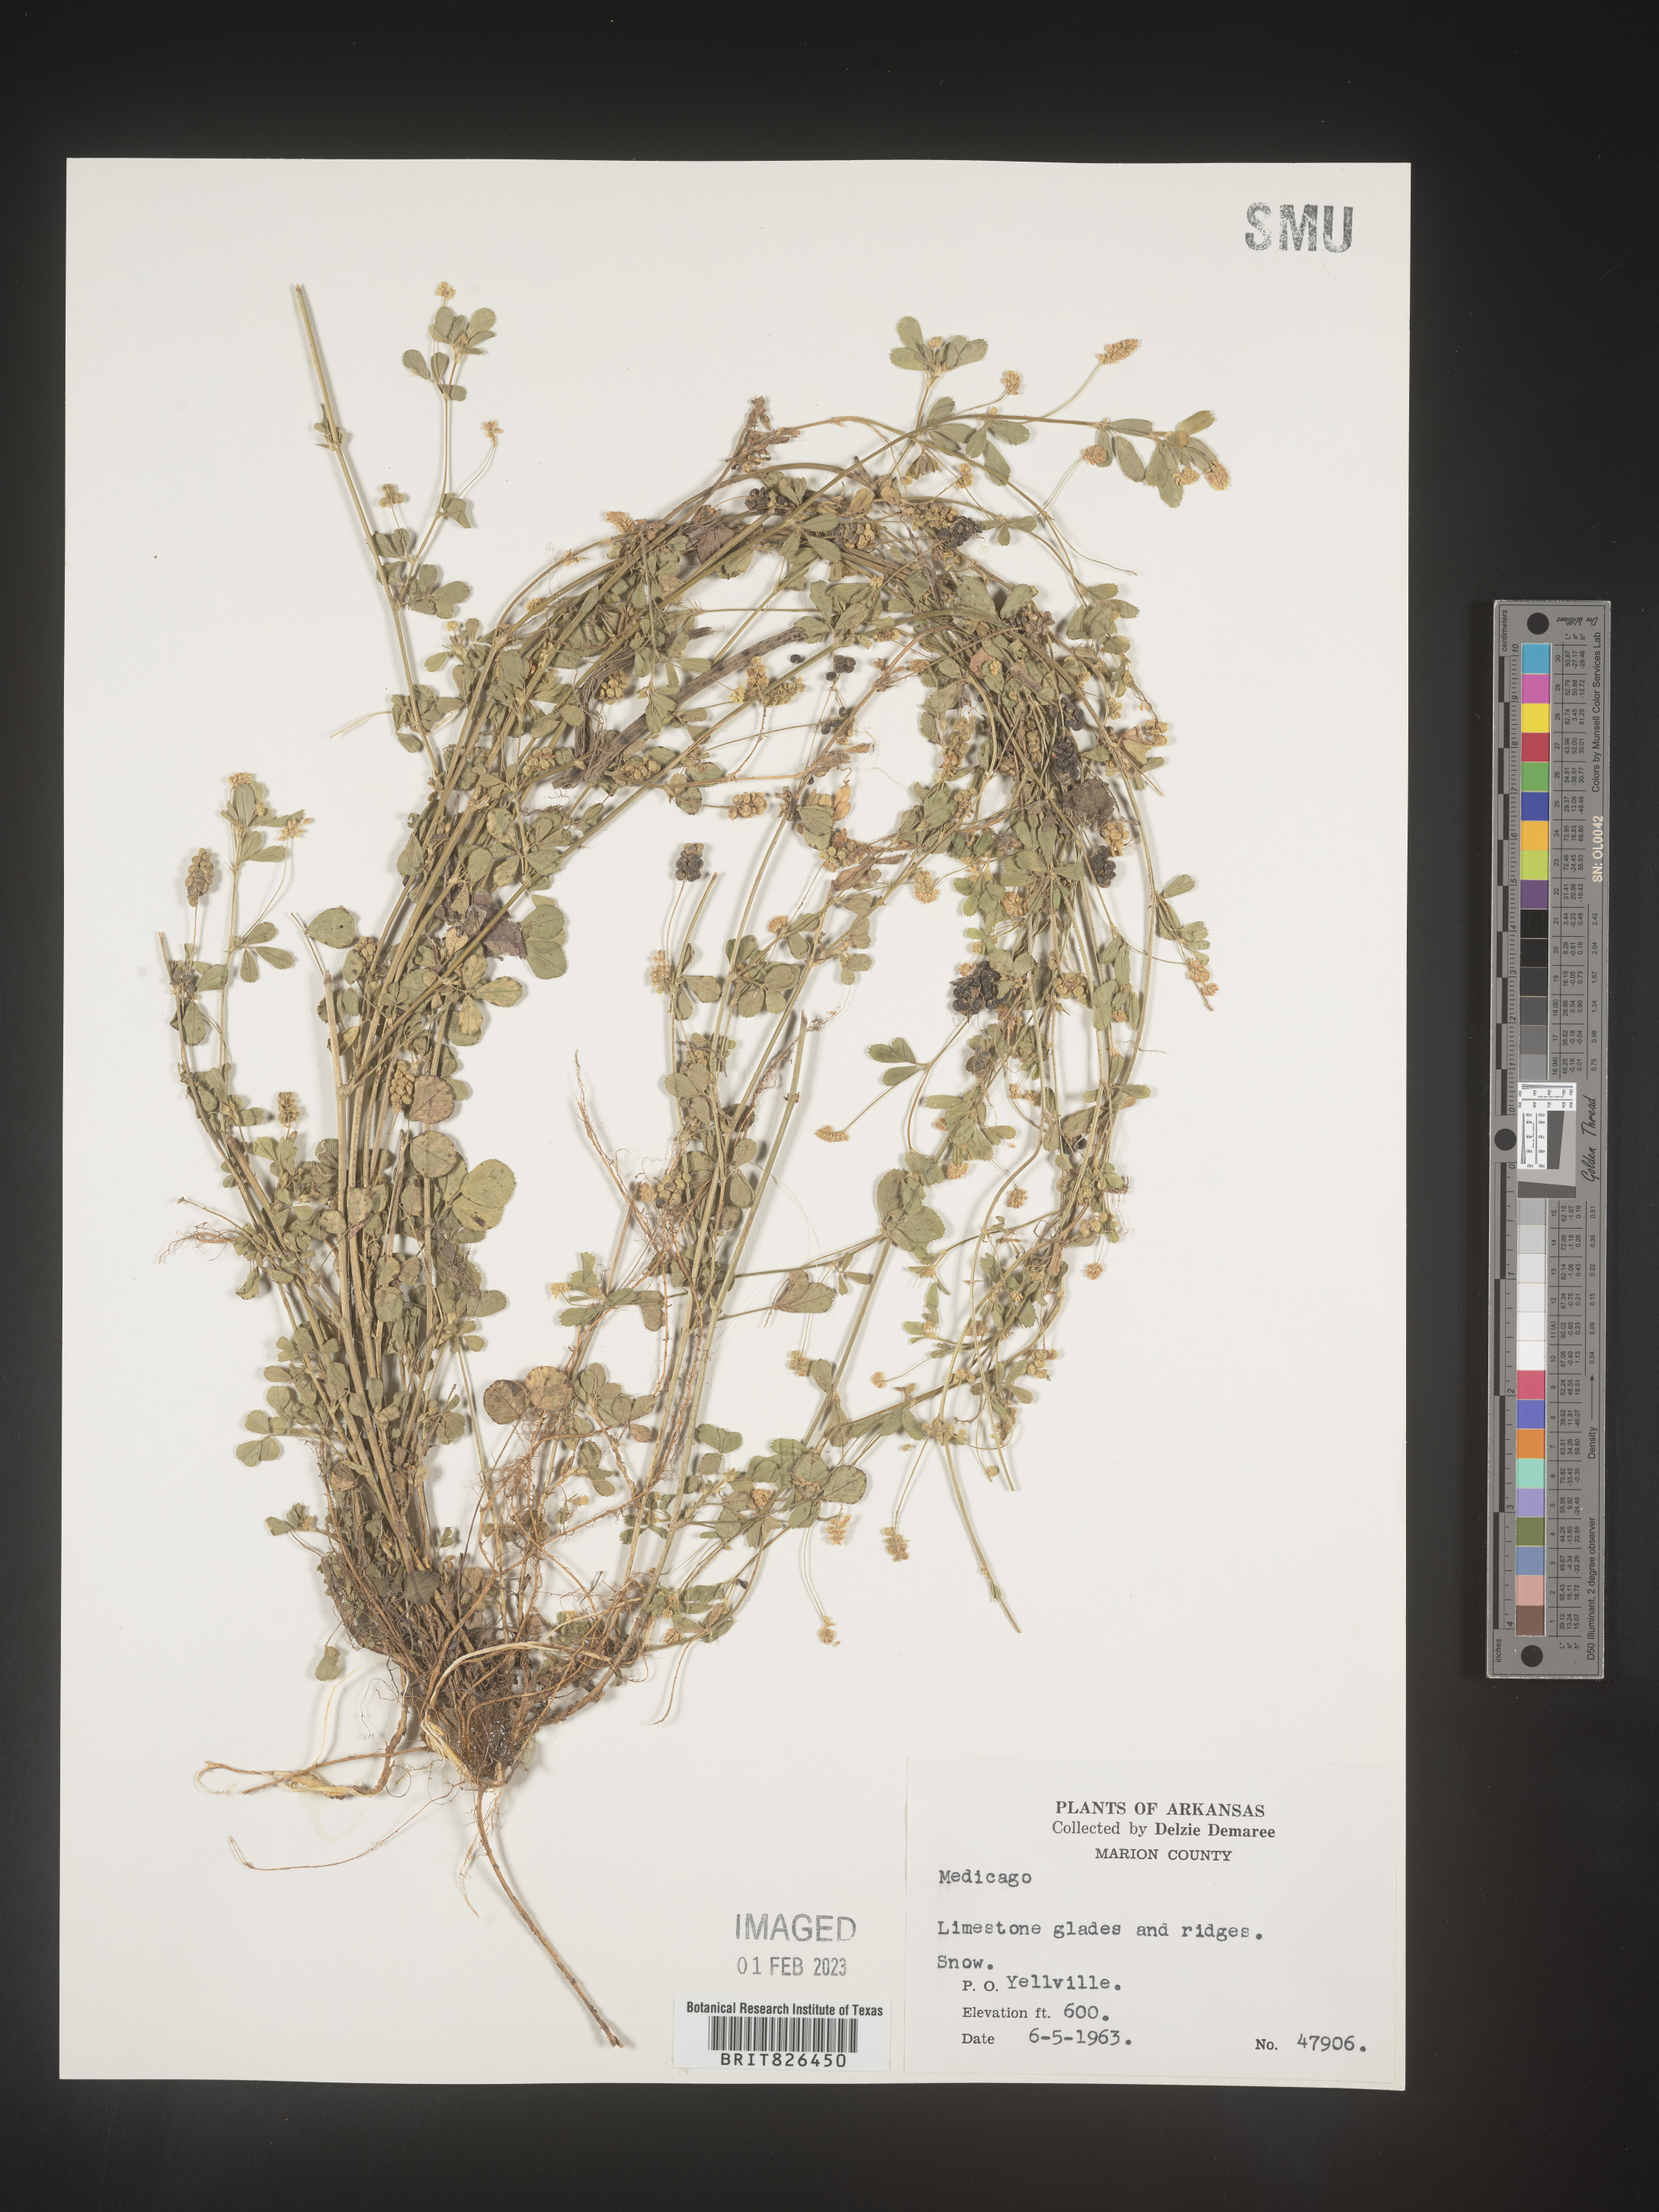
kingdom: Plantae
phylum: Tracheophyta
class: Magnoliopsida
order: Fabales
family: Fabaceae
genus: Medicago
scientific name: Medicago lupulina
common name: Black medick
